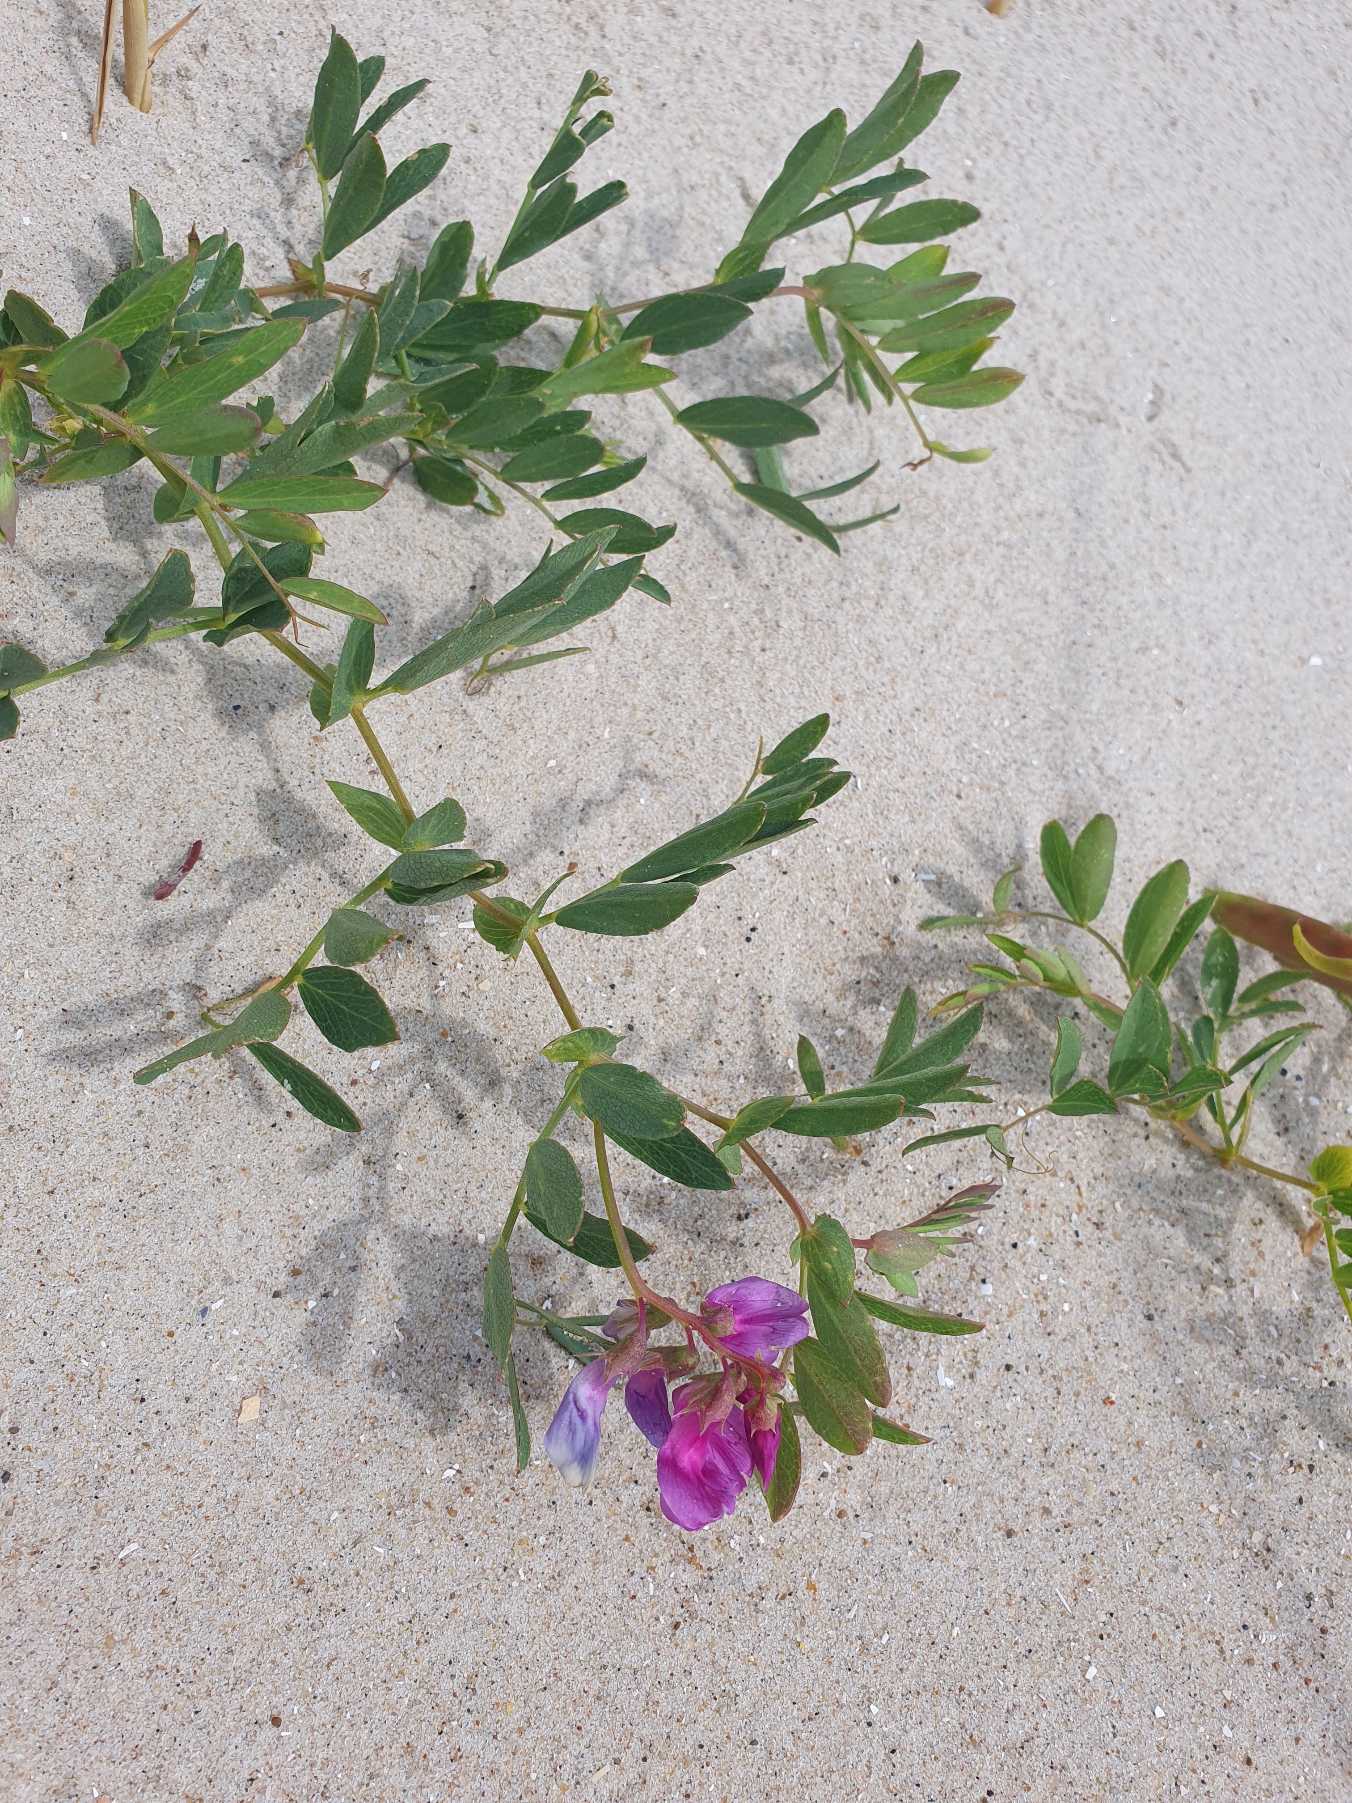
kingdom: Plantae
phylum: Tracheophyta
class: Magnoliopsida
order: Fabales
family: Fabaceae
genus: Lathyrus
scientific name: Lathyrus japonicus
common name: Klit-fladbælg
